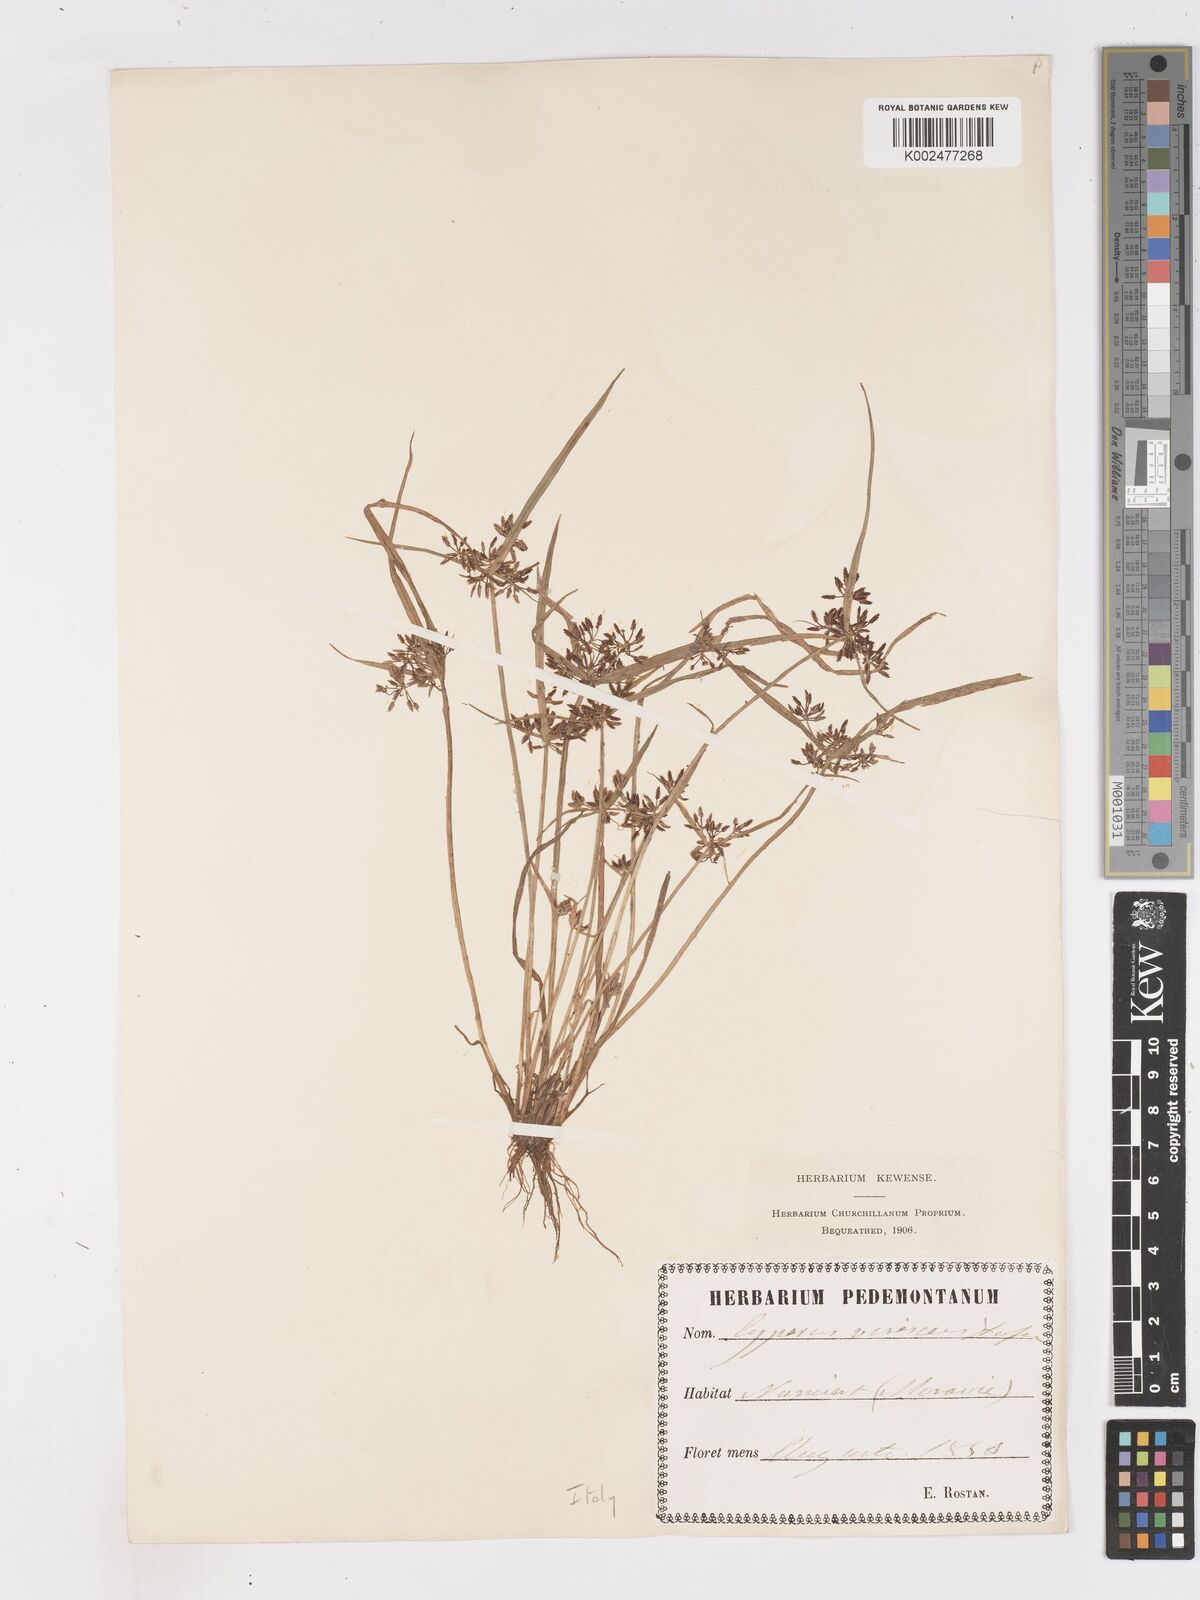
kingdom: Plantae
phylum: Tracheophyta
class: Liliopsida
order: Poales
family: Cyperaceae
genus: Cyperus
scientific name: Cyperus fuscus
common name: Brown galingale
